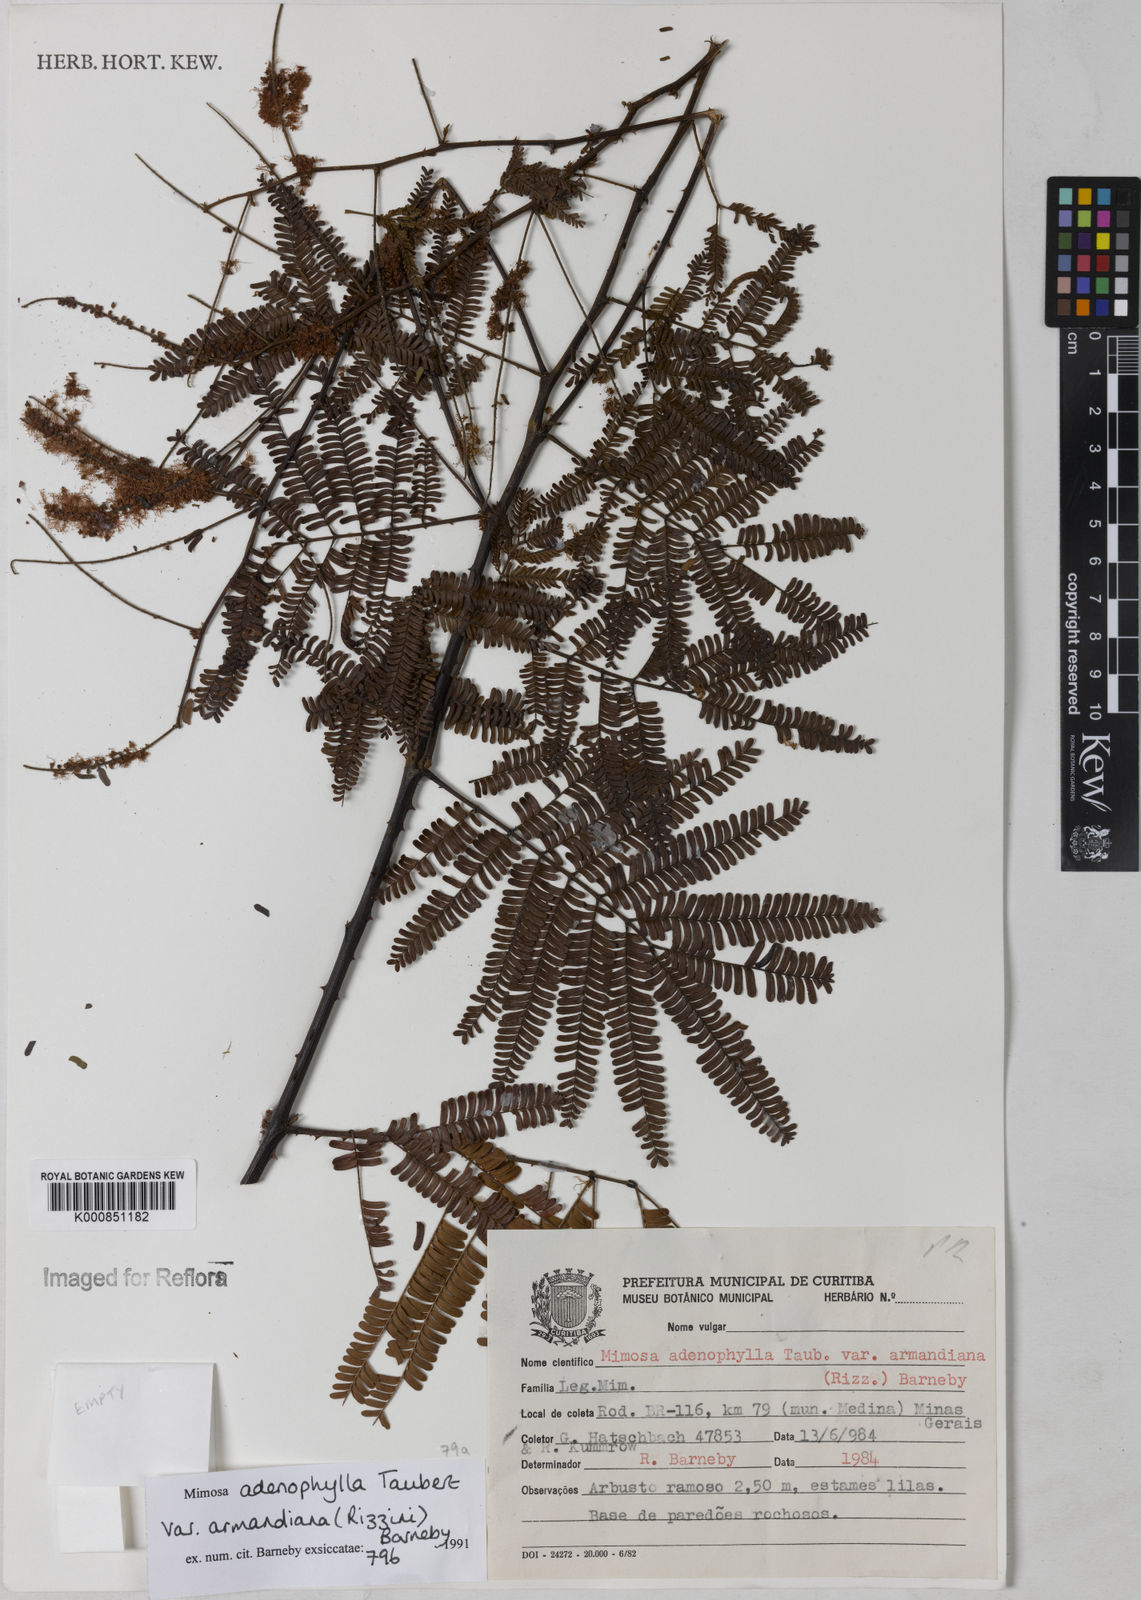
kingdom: Plantae
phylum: Tracheophyta
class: Magnoliopsida
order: Fabales
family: Fabaceae
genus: Mimosa
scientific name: Mimosa pteridifolia
